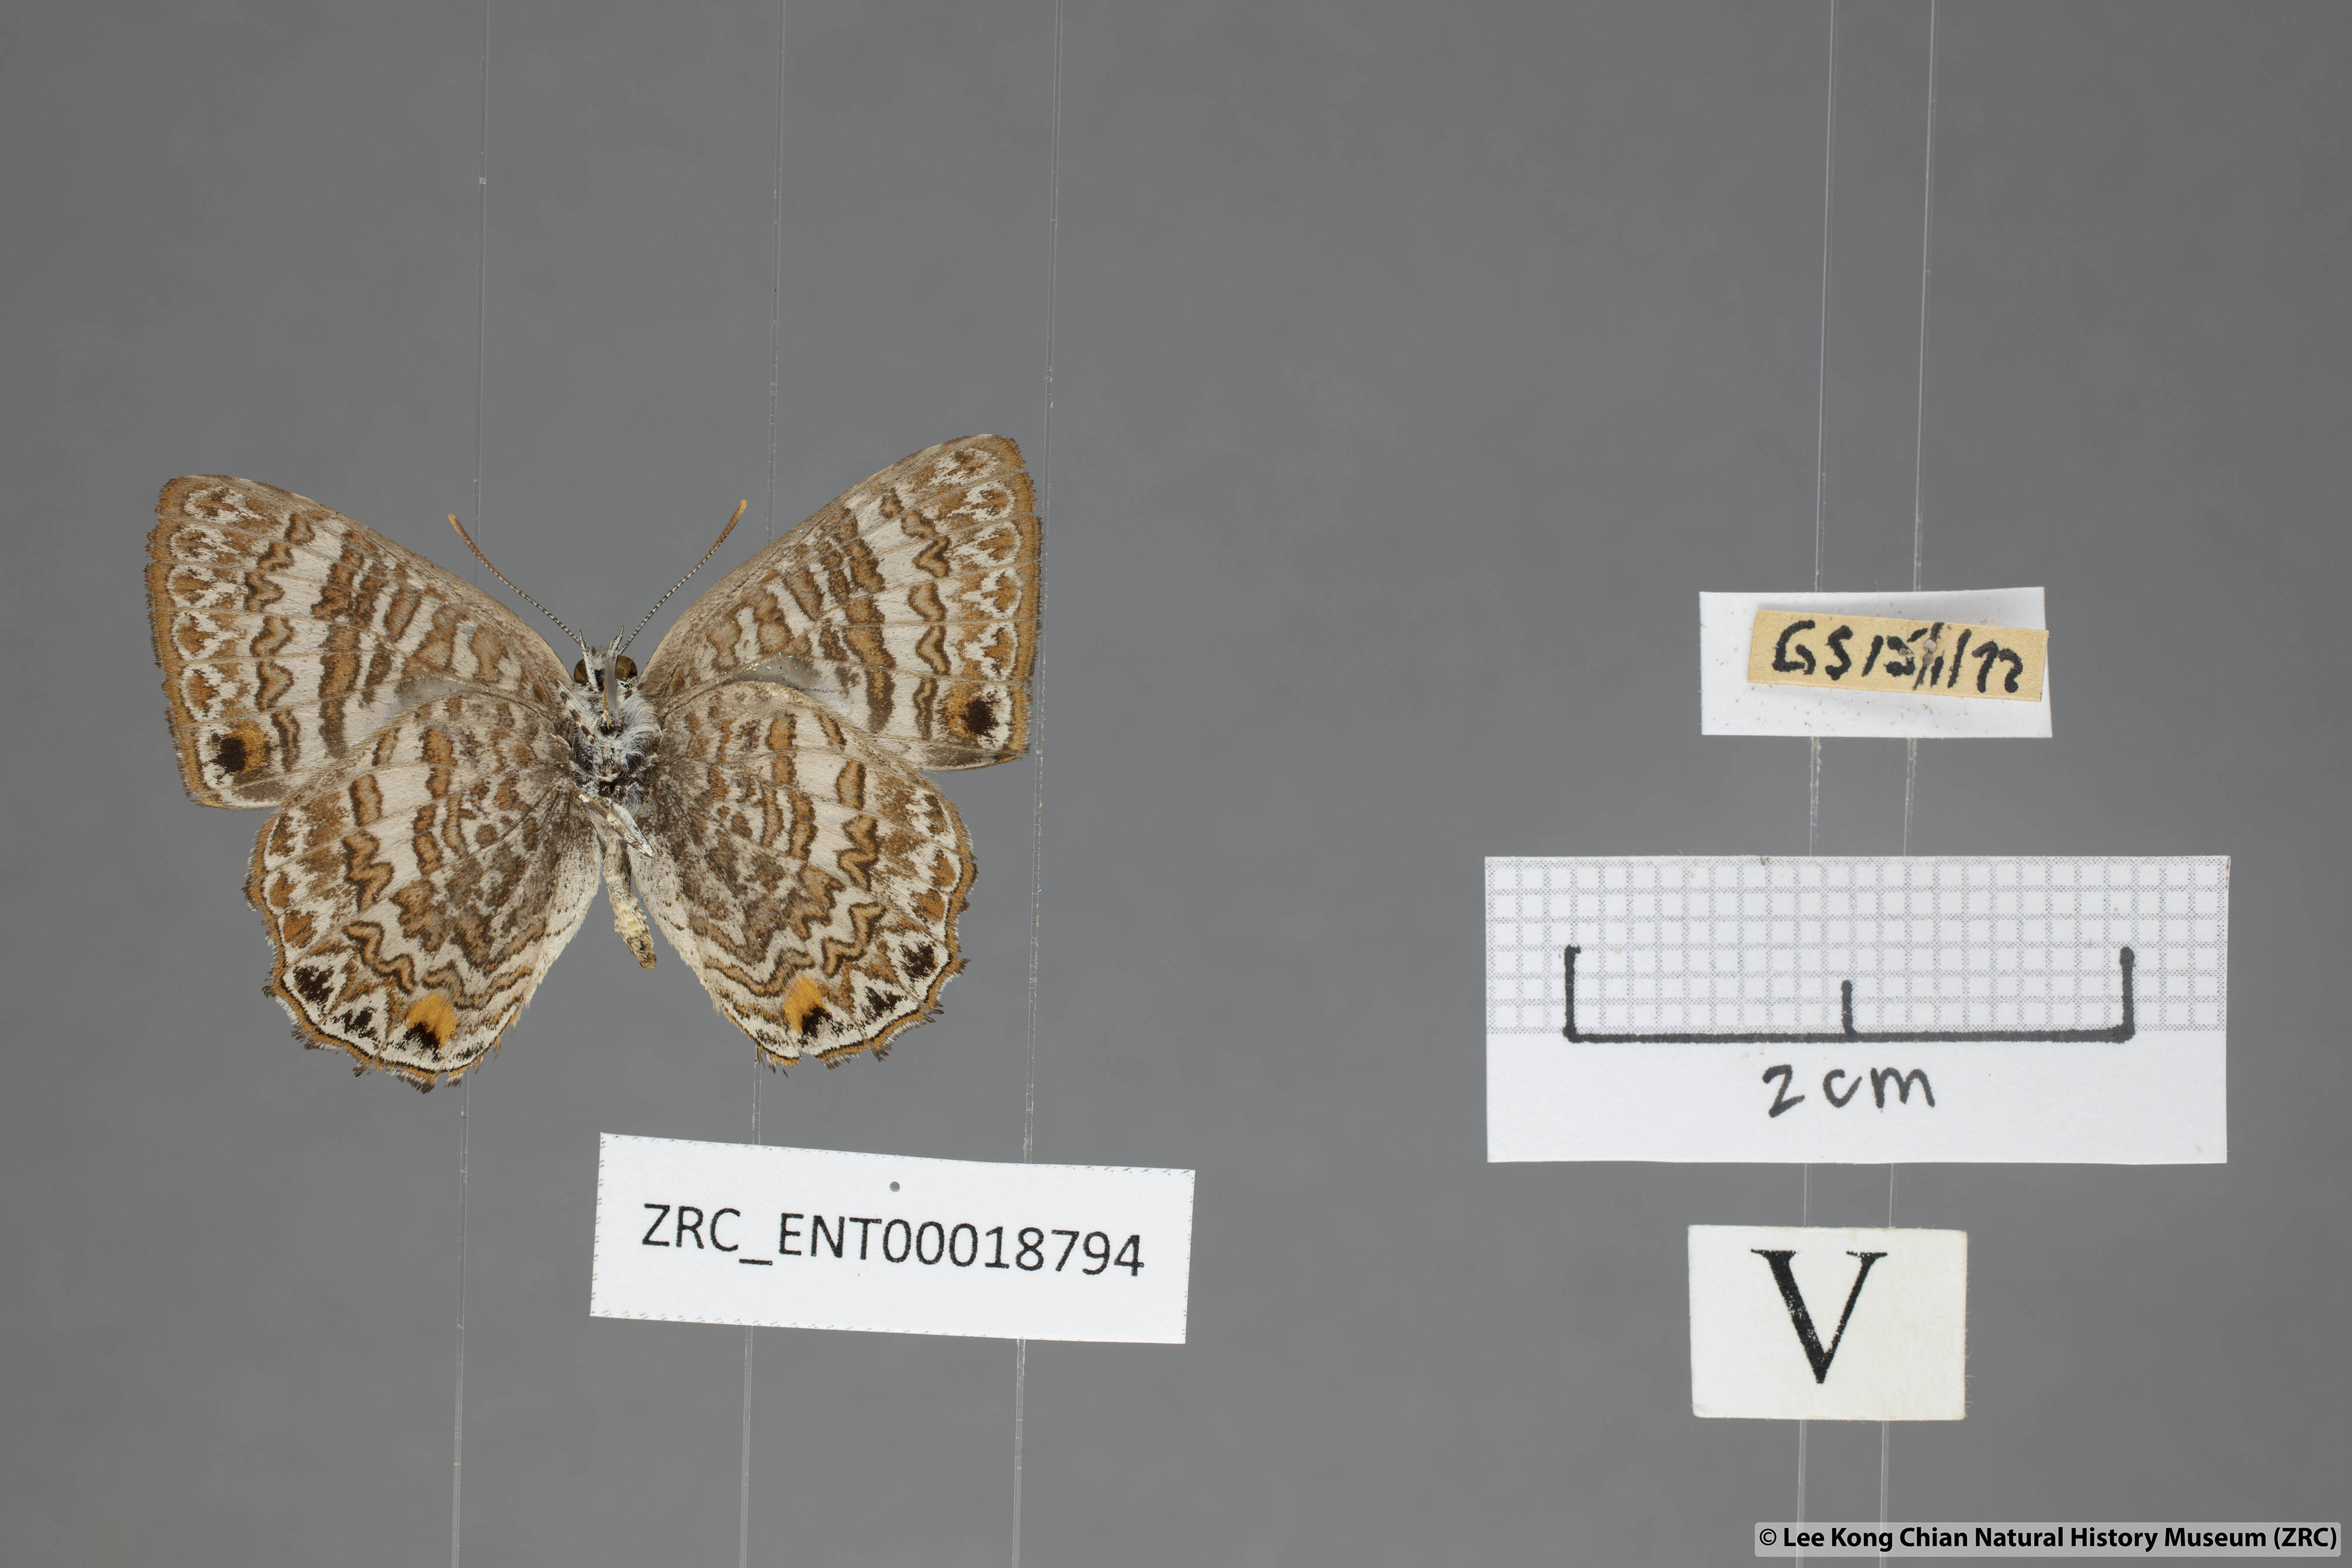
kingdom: Animalia
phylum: Arthropoda
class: Insecta
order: Lepidoptera
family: Lycaenidae
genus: Poritia
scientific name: Poritia pleurata
